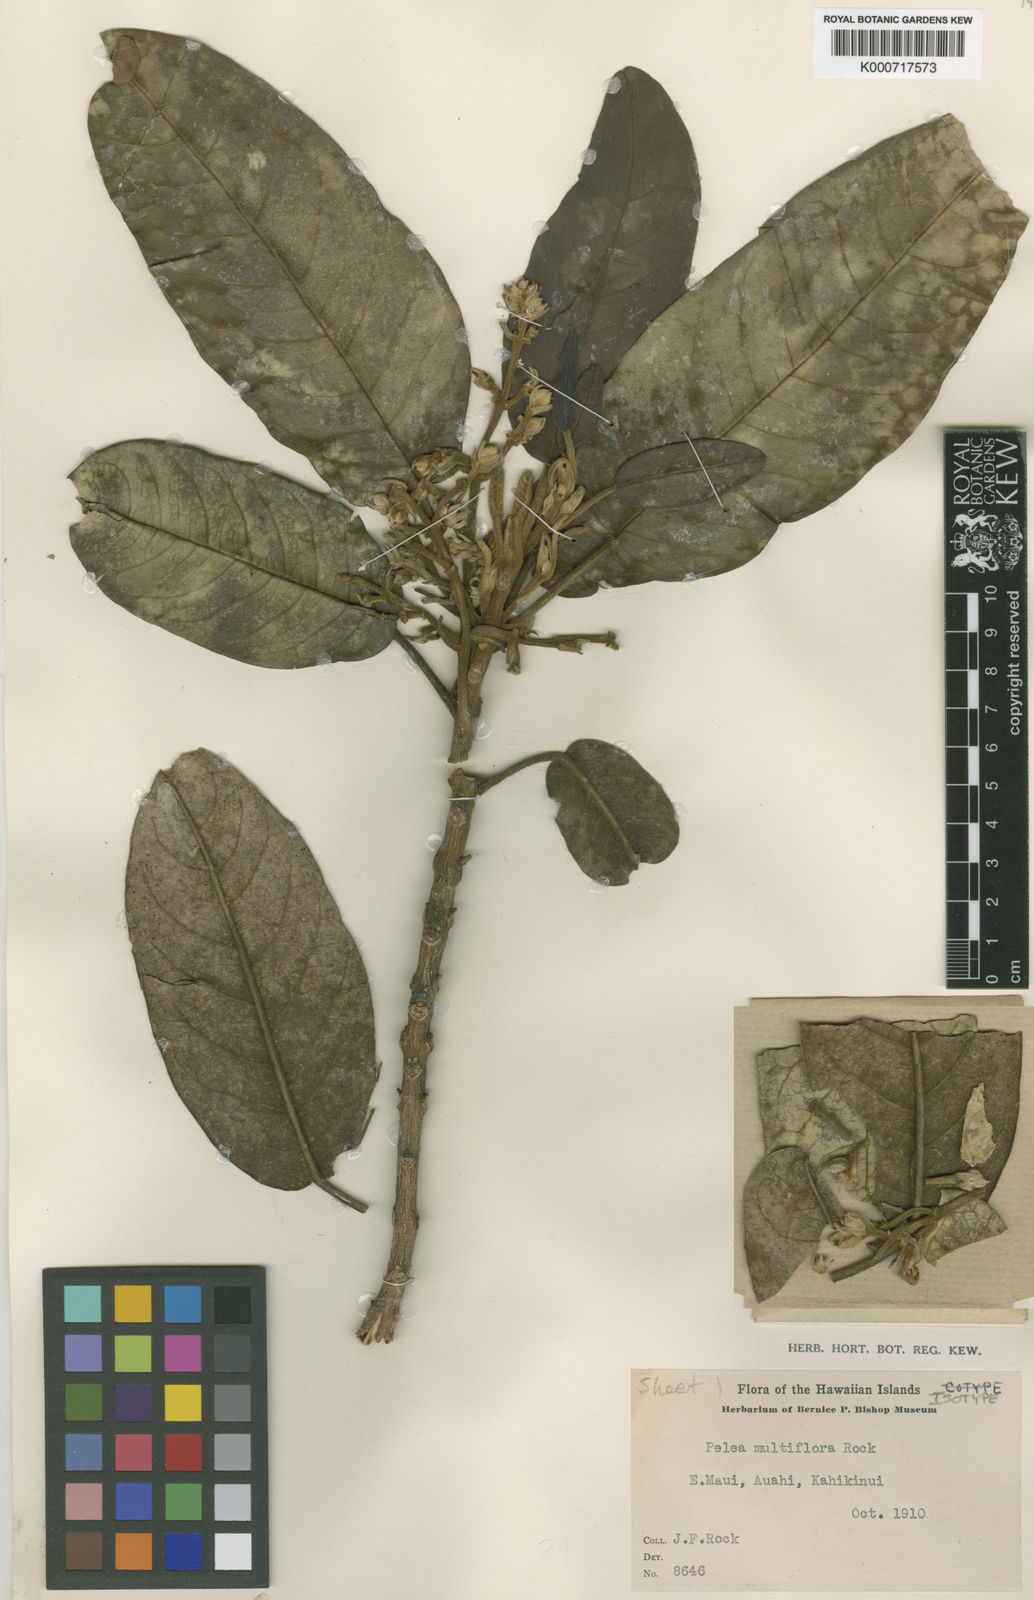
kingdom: Plantae
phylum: Tracheophyta
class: Magnoliopsida
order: Sapindales
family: Rutaceae
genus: Melicope
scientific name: Melicope knudsenii
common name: Knudsen's melicope
